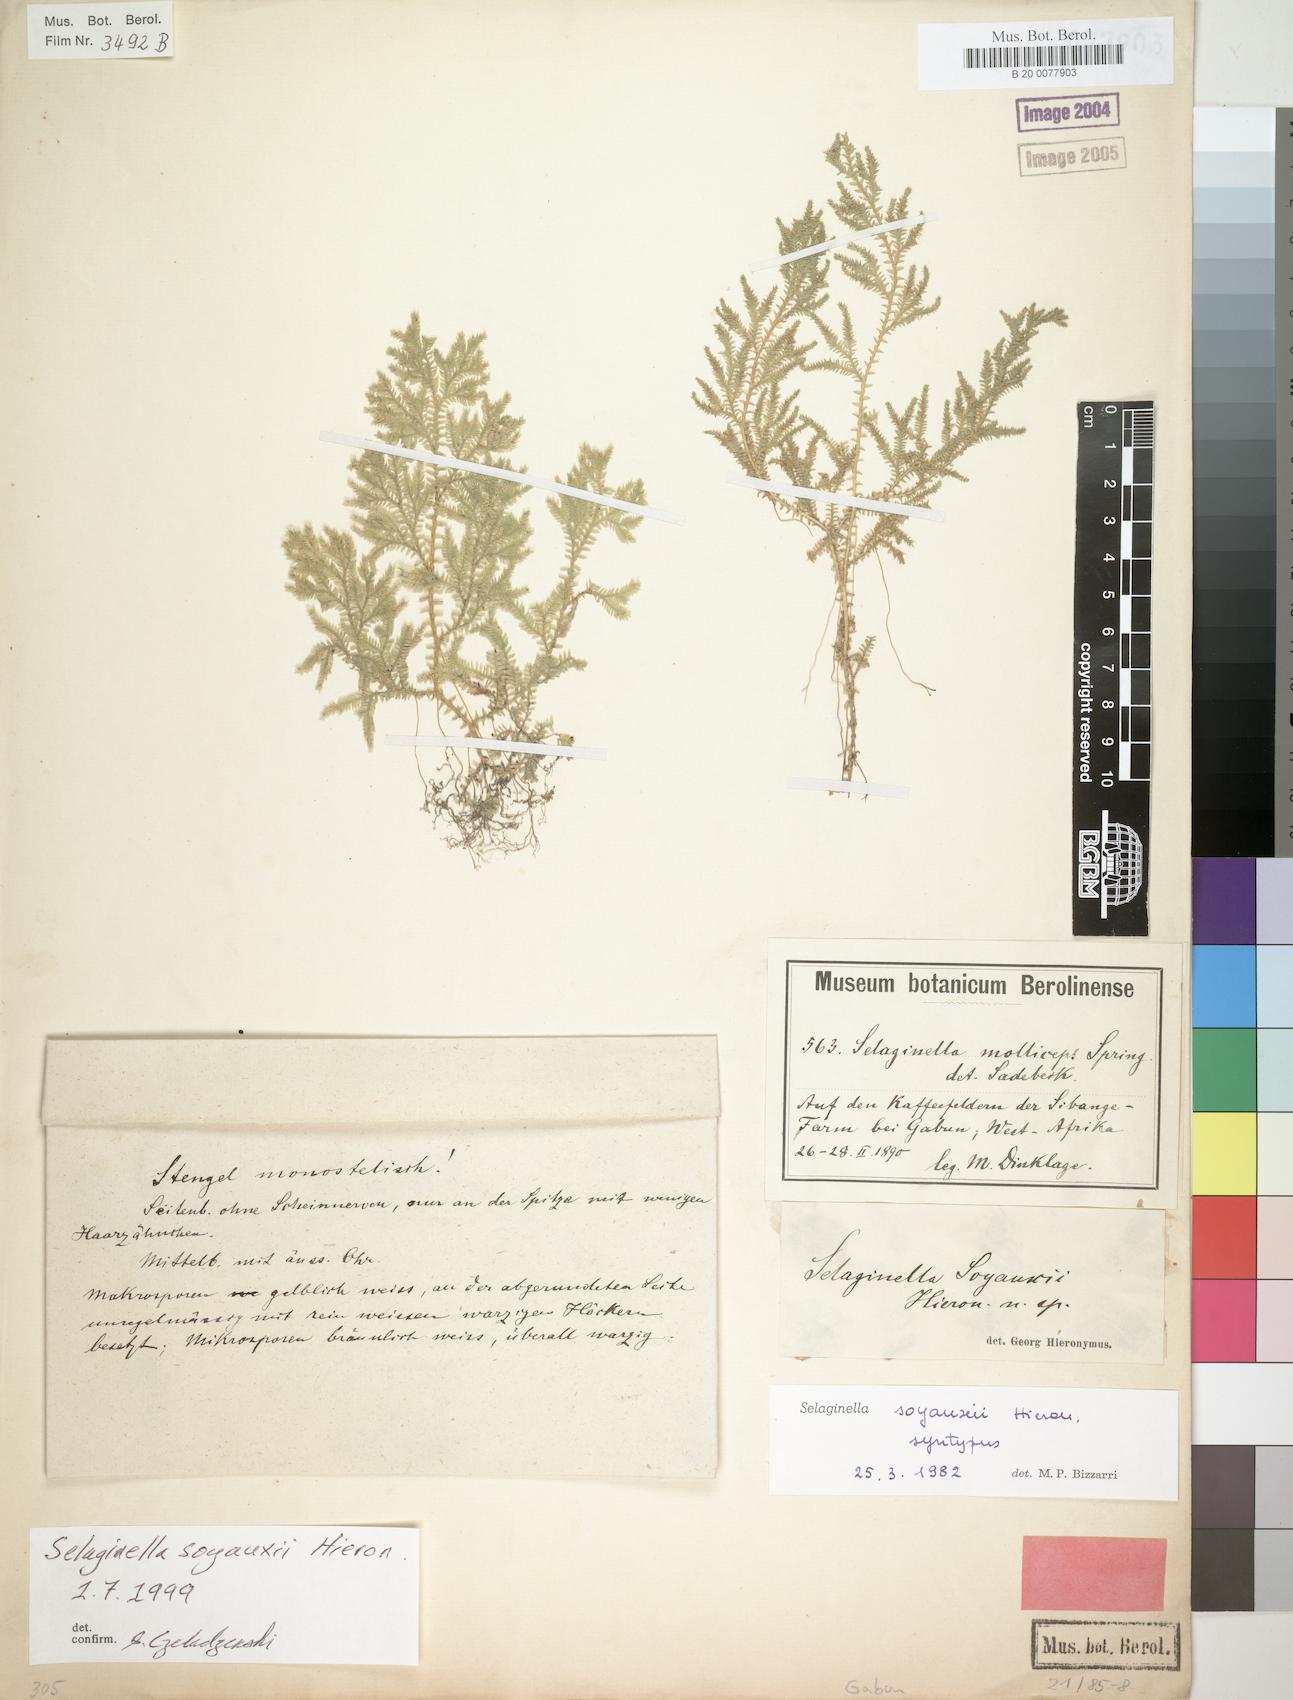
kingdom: Plantae
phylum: Tracheophyta
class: Lycopodiopsida
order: Selaginellales
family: Selaginellaceae
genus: Selaginella
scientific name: Selaginella
